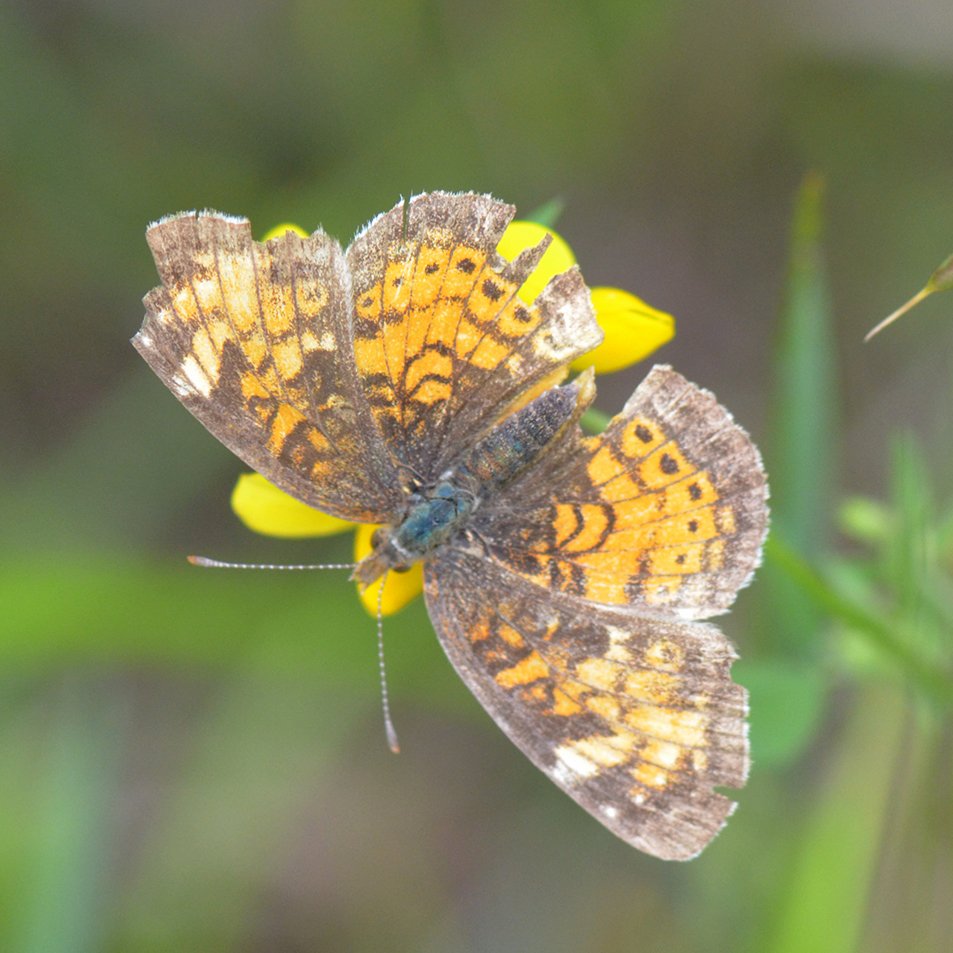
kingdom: Animalia
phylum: Arthropoda
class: Insecta
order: Lepidoptera
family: Nymphalidae
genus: Phyciodes
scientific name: Phyciodes tharos
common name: Northern Crescent
